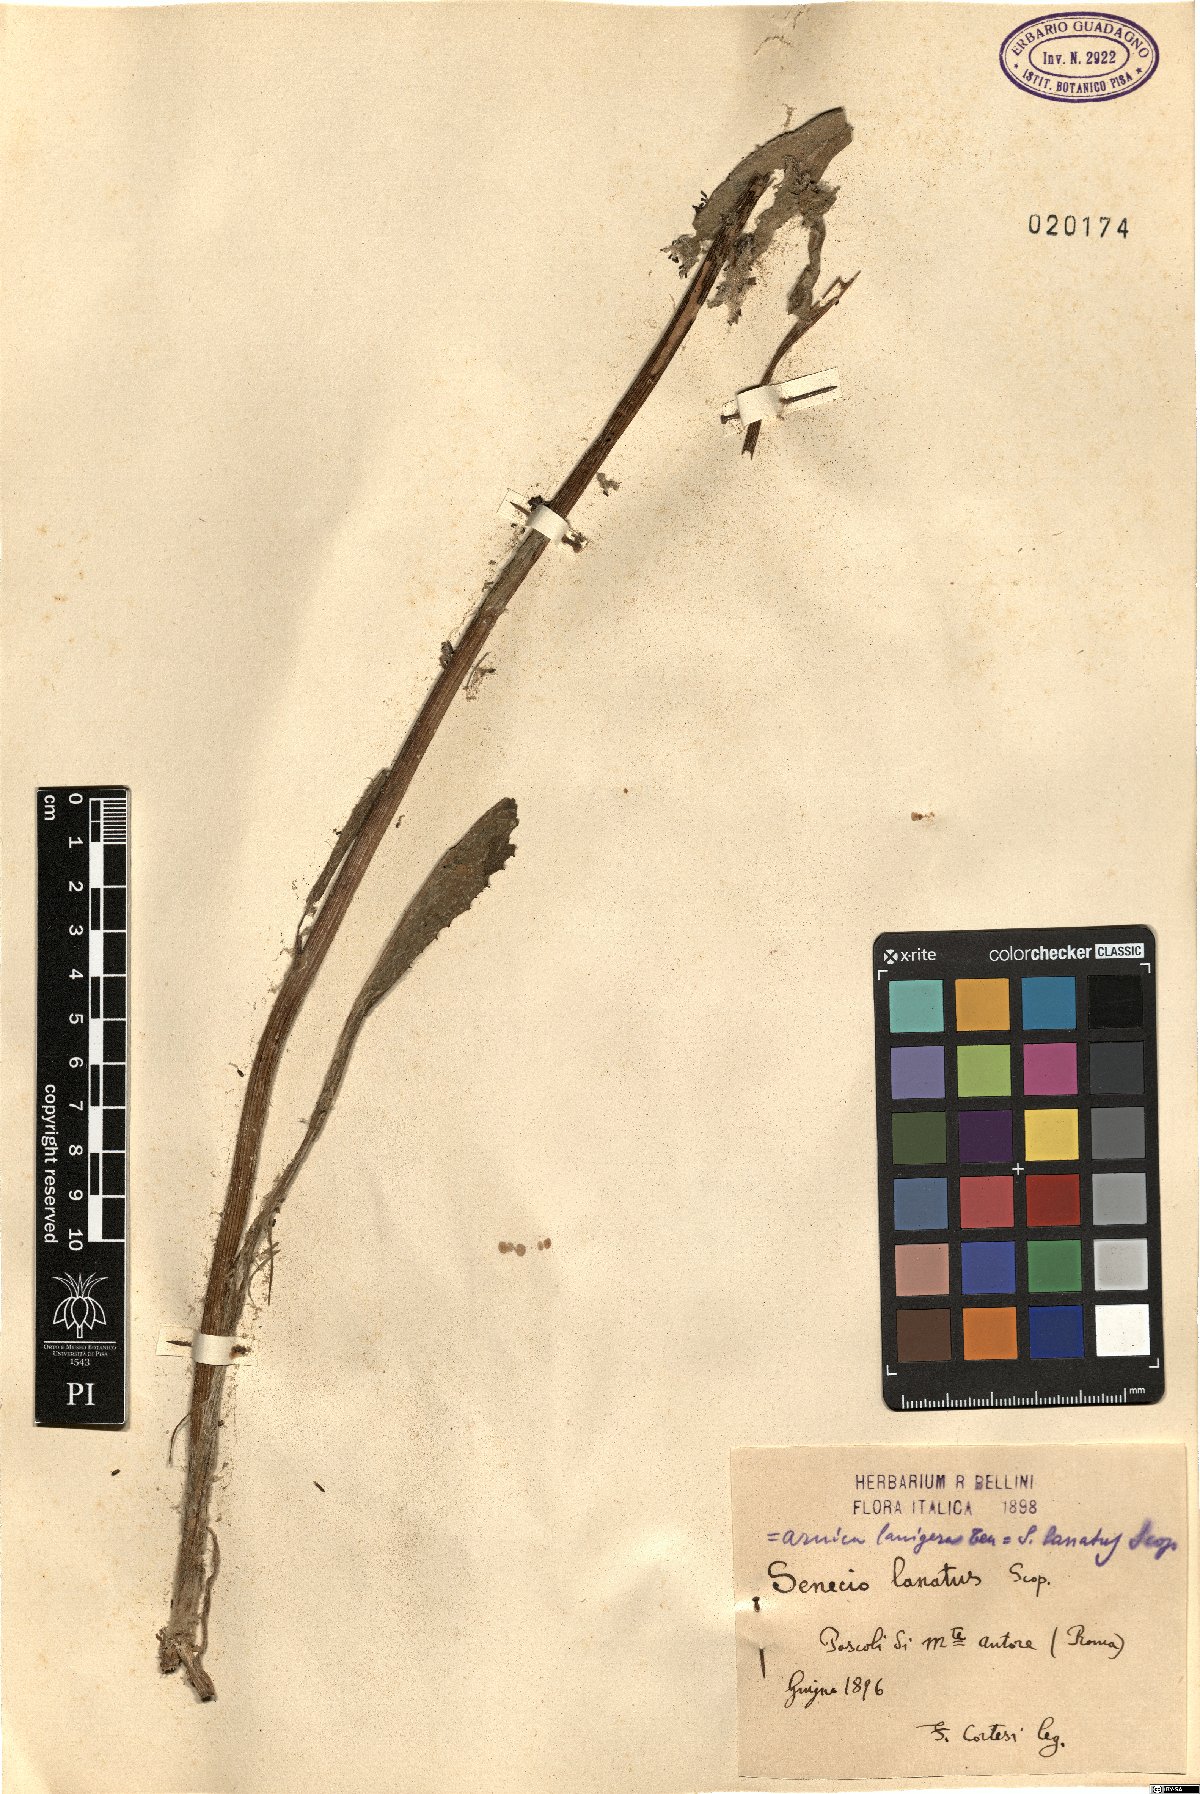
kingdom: Plantae
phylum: Tracheophyta
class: Magnoliopsida
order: Asterales
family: Asteraceae
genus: Senecio
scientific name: Senecio scopolii
